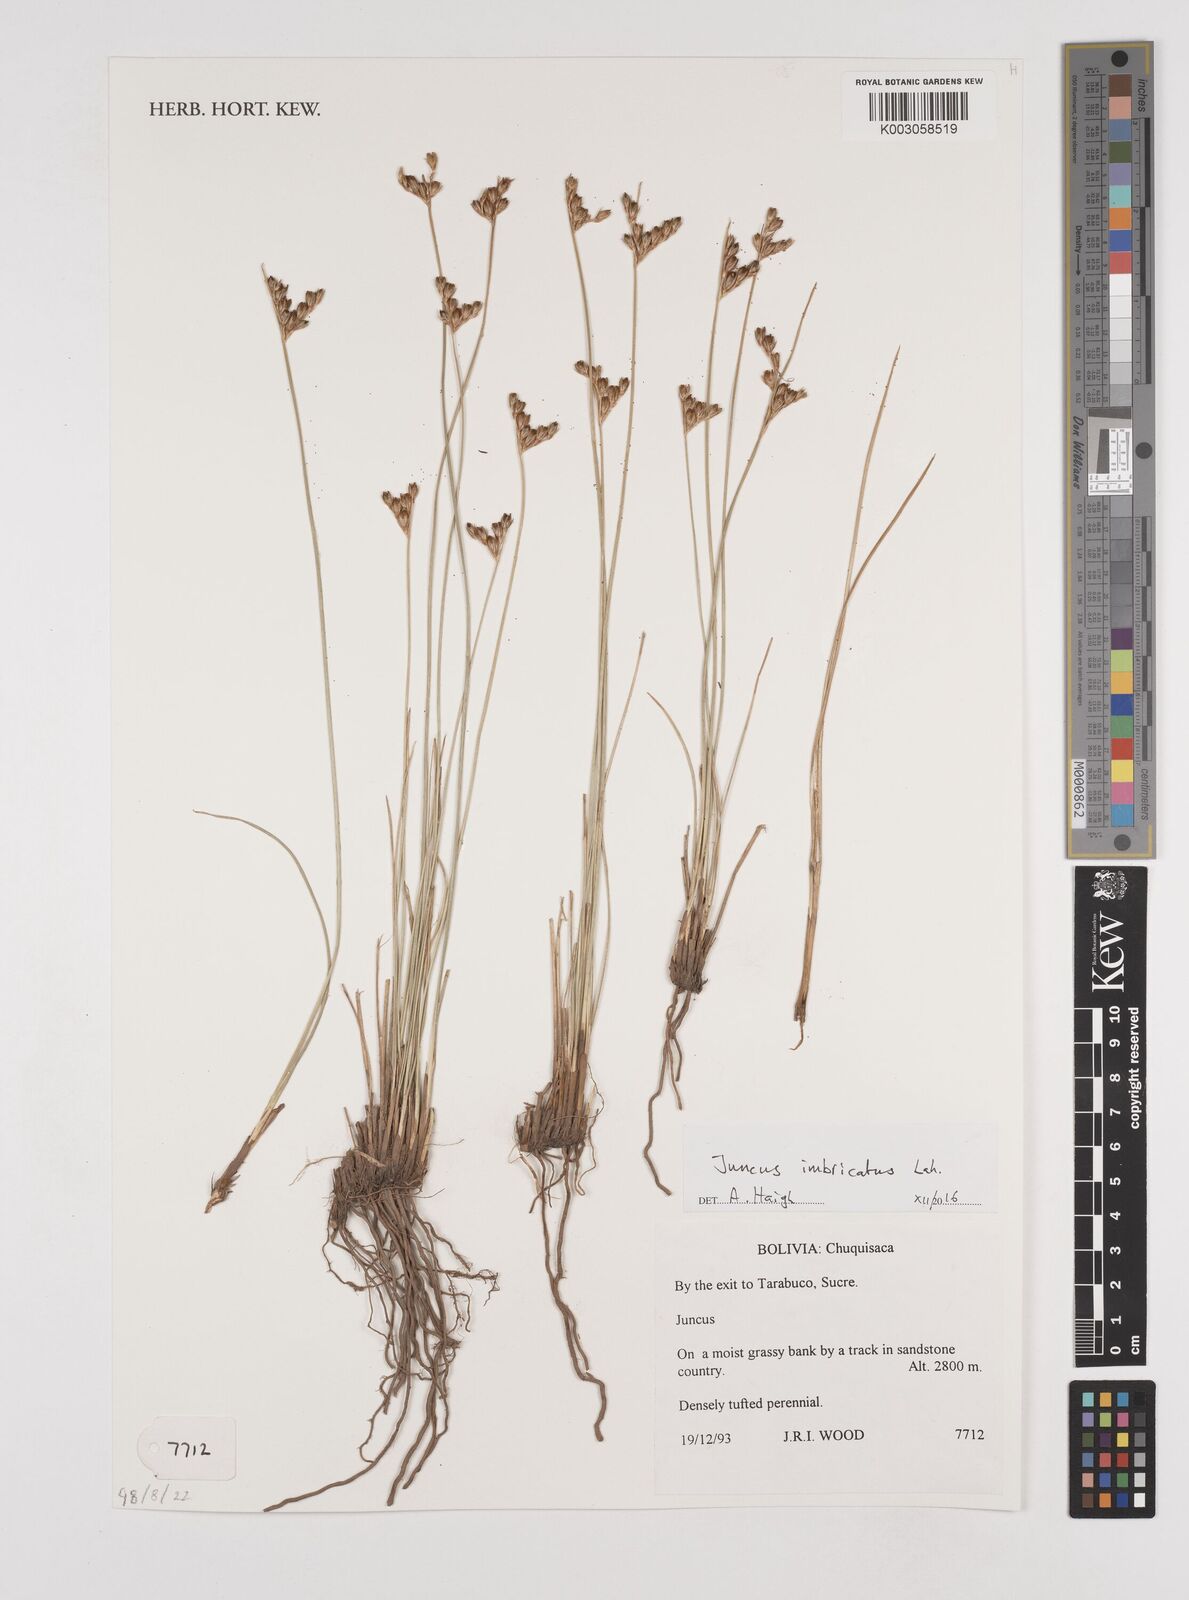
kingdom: Plantae
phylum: Tracheophyta
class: Liliopsida
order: Poales
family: Juncaceae
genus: Juncus
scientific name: Juncus imbricatus
